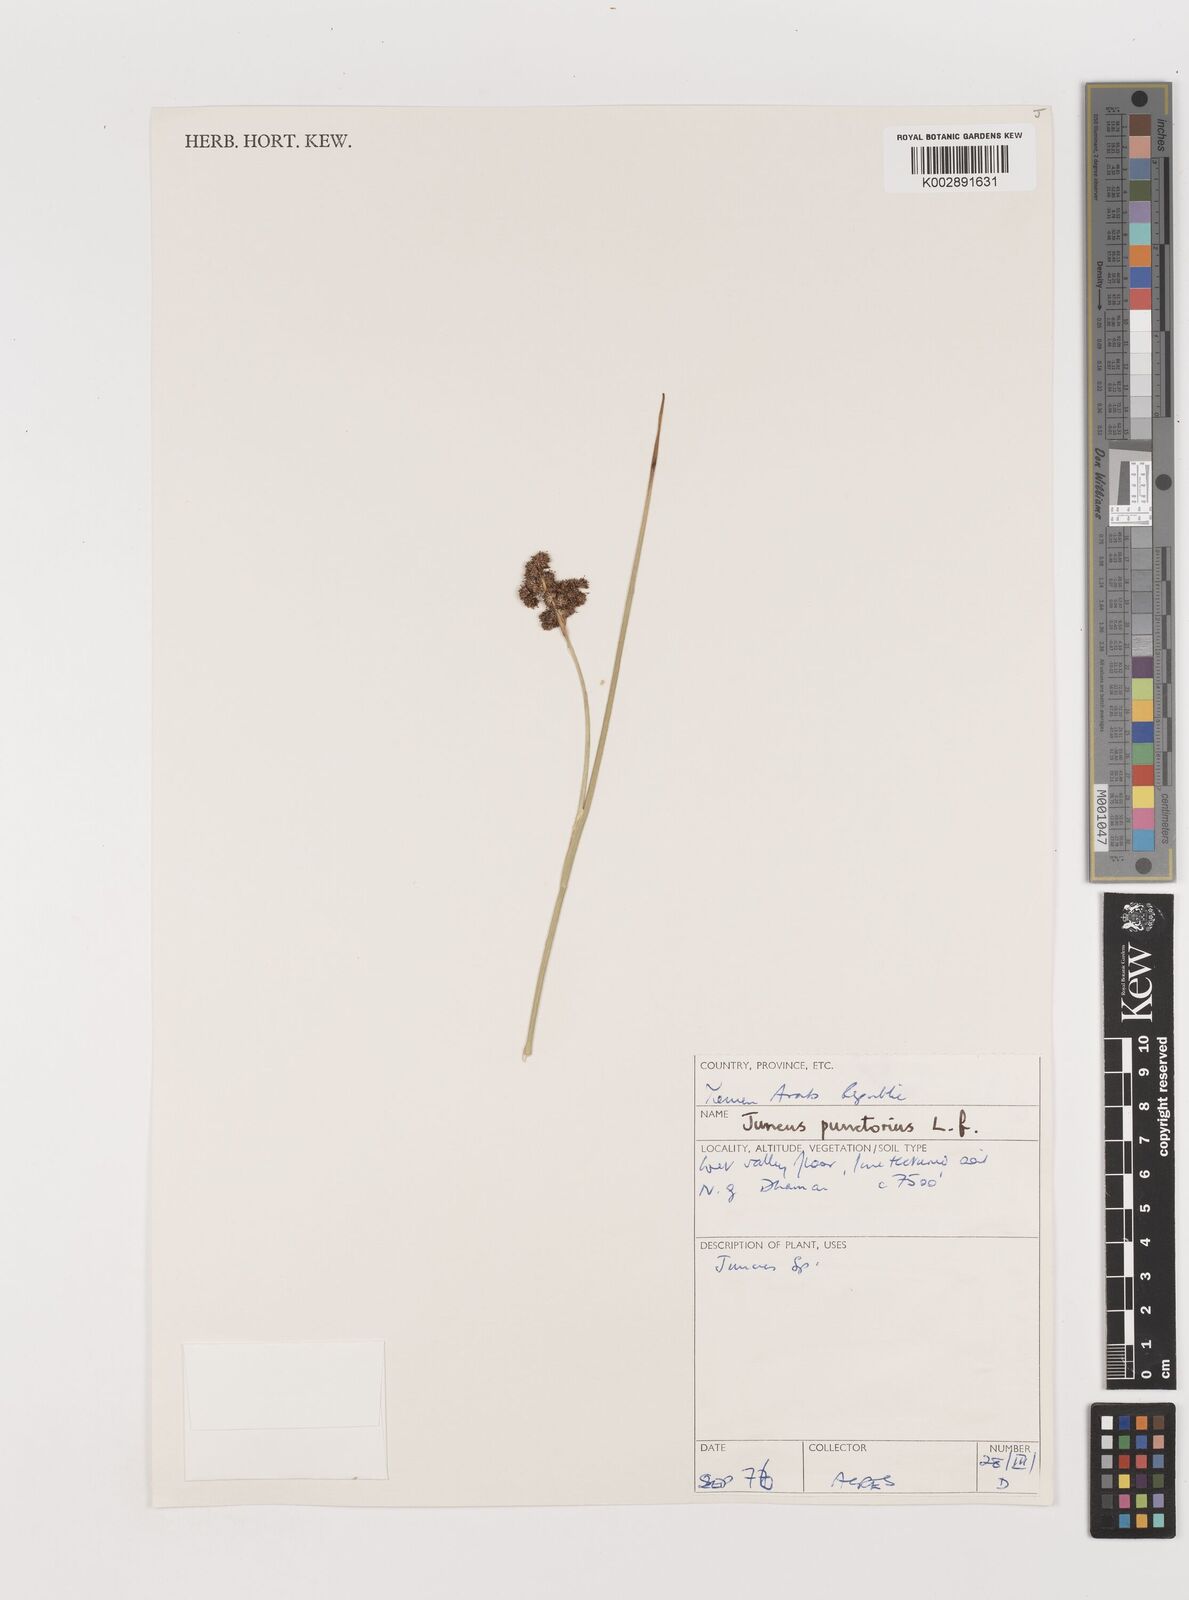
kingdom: Plantae
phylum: Tracheophyta
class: Liliopsida
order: Poales
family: Juncaceae
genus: Juncus
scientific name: Juncus punctorius
